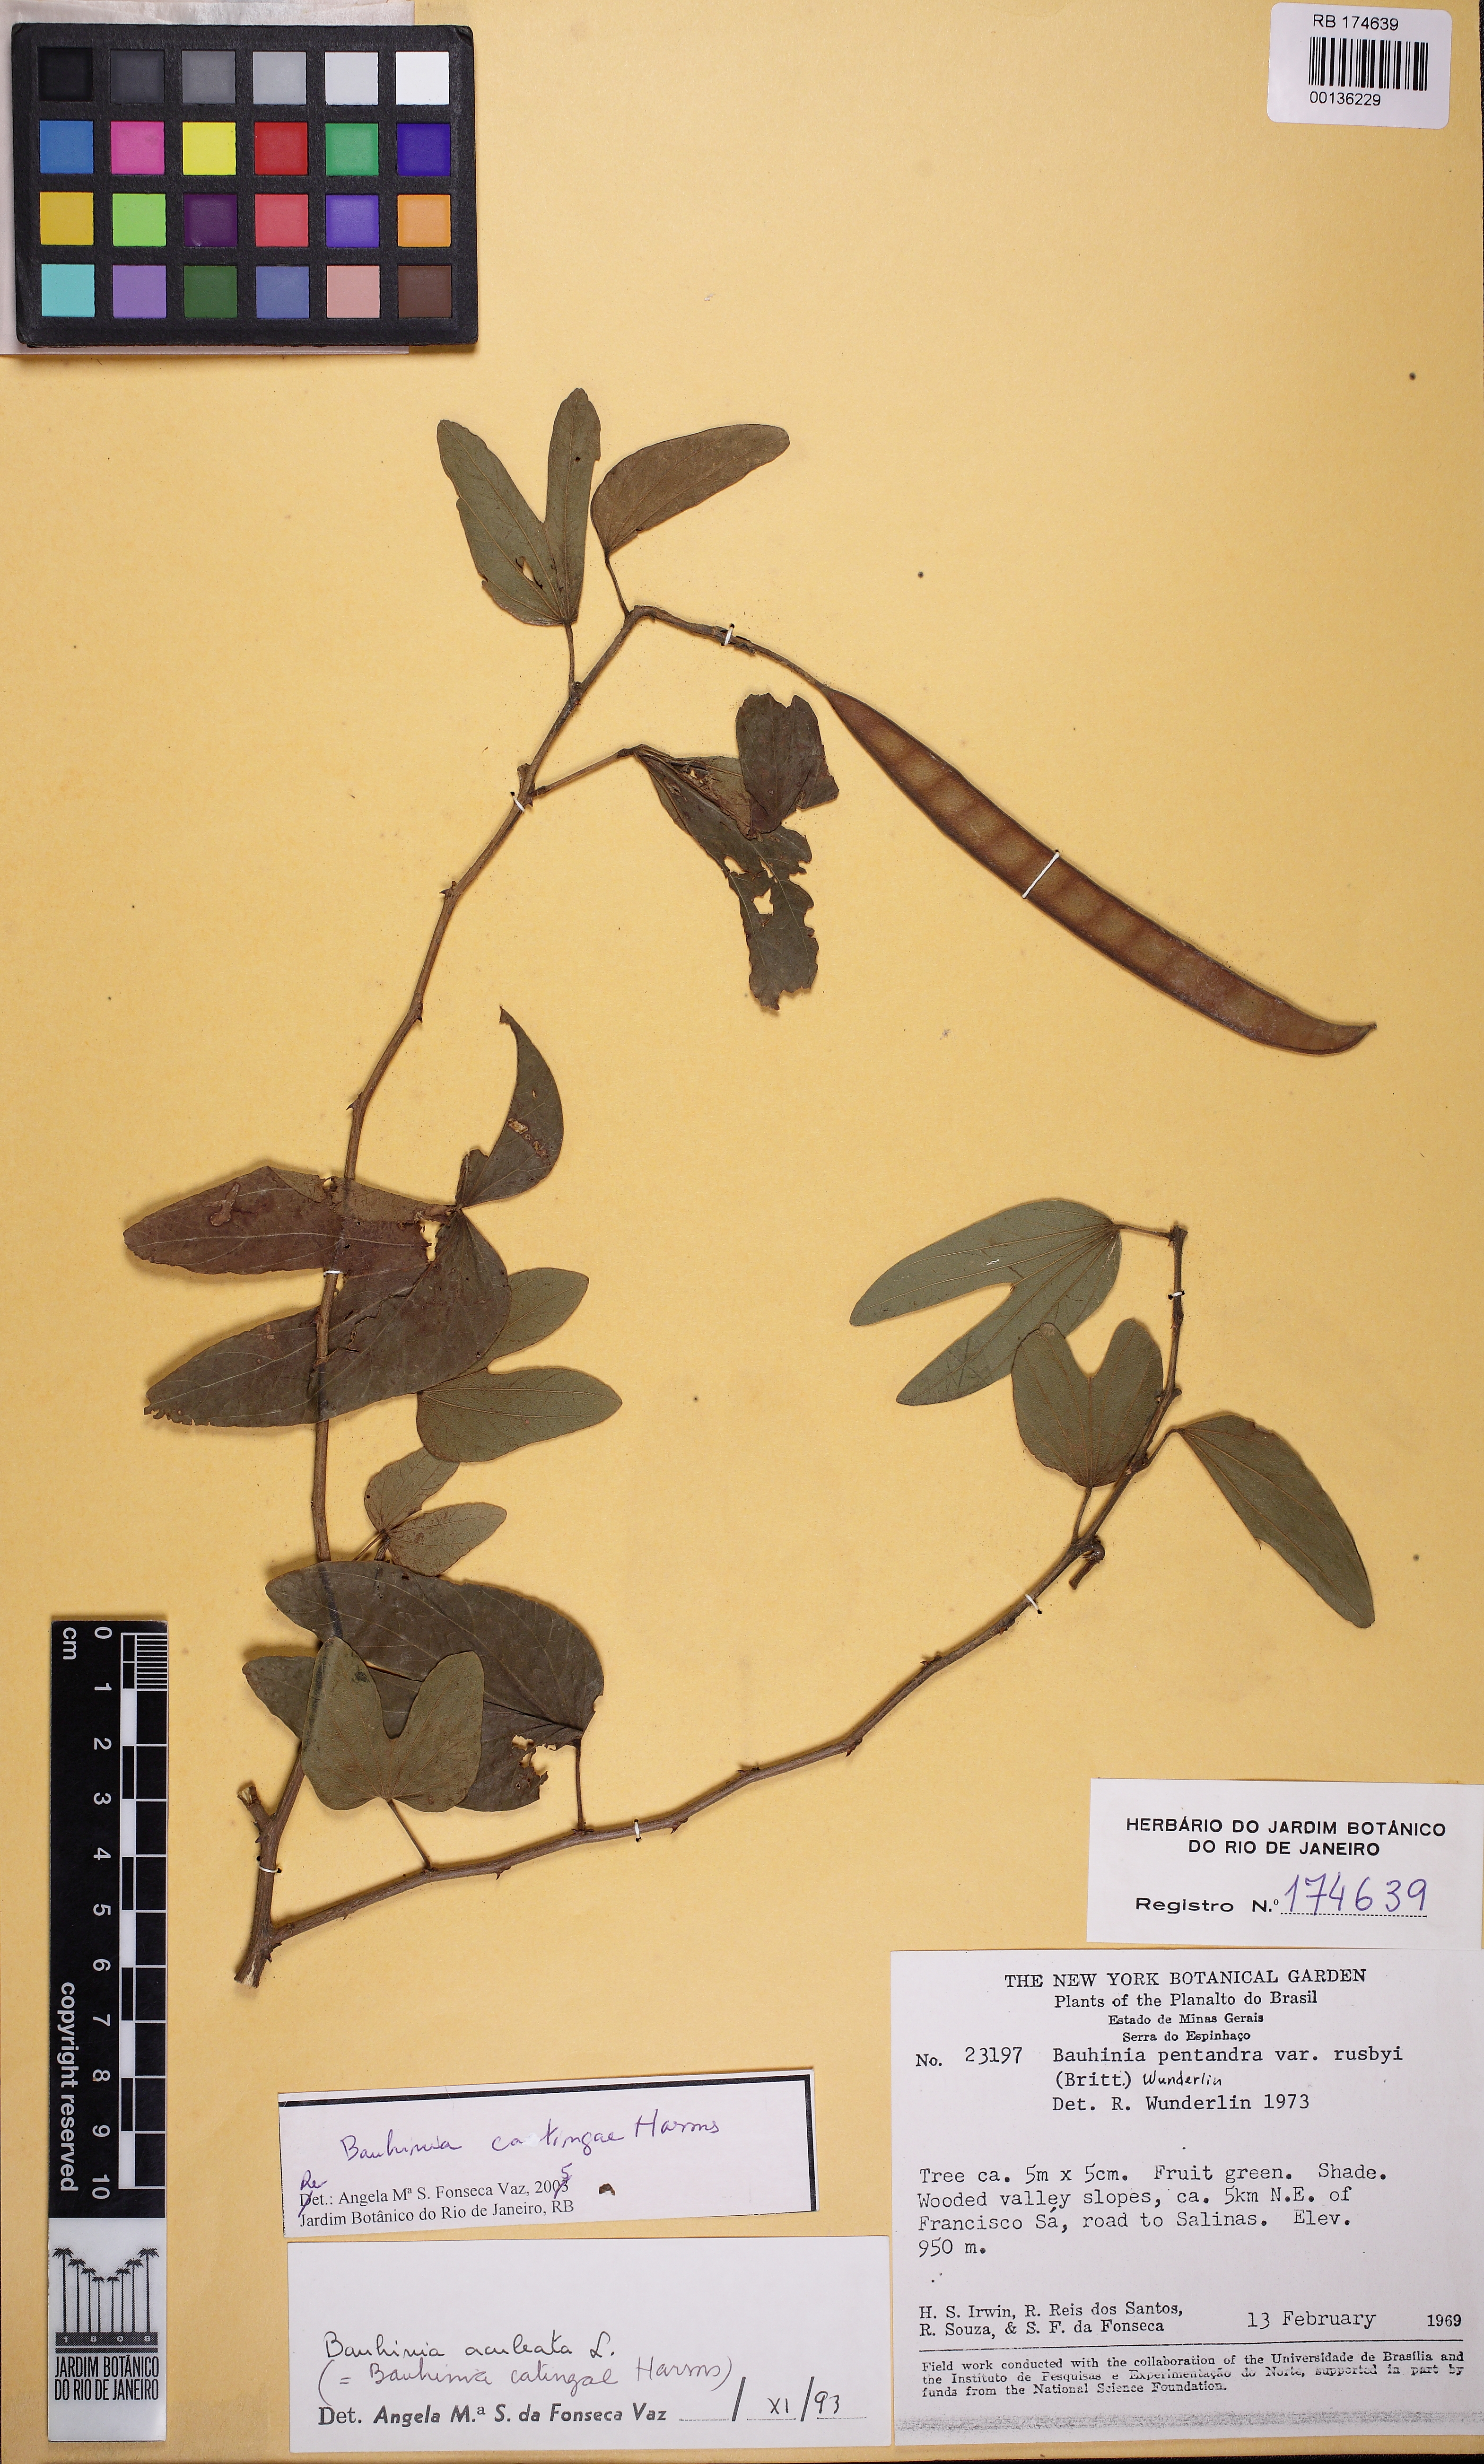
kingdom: Plantae
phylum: Tracheophyta
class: Magnoliopsida
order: Fabales
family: Fabaceae
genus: Bauhinia
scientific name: Bauhinia catingae
